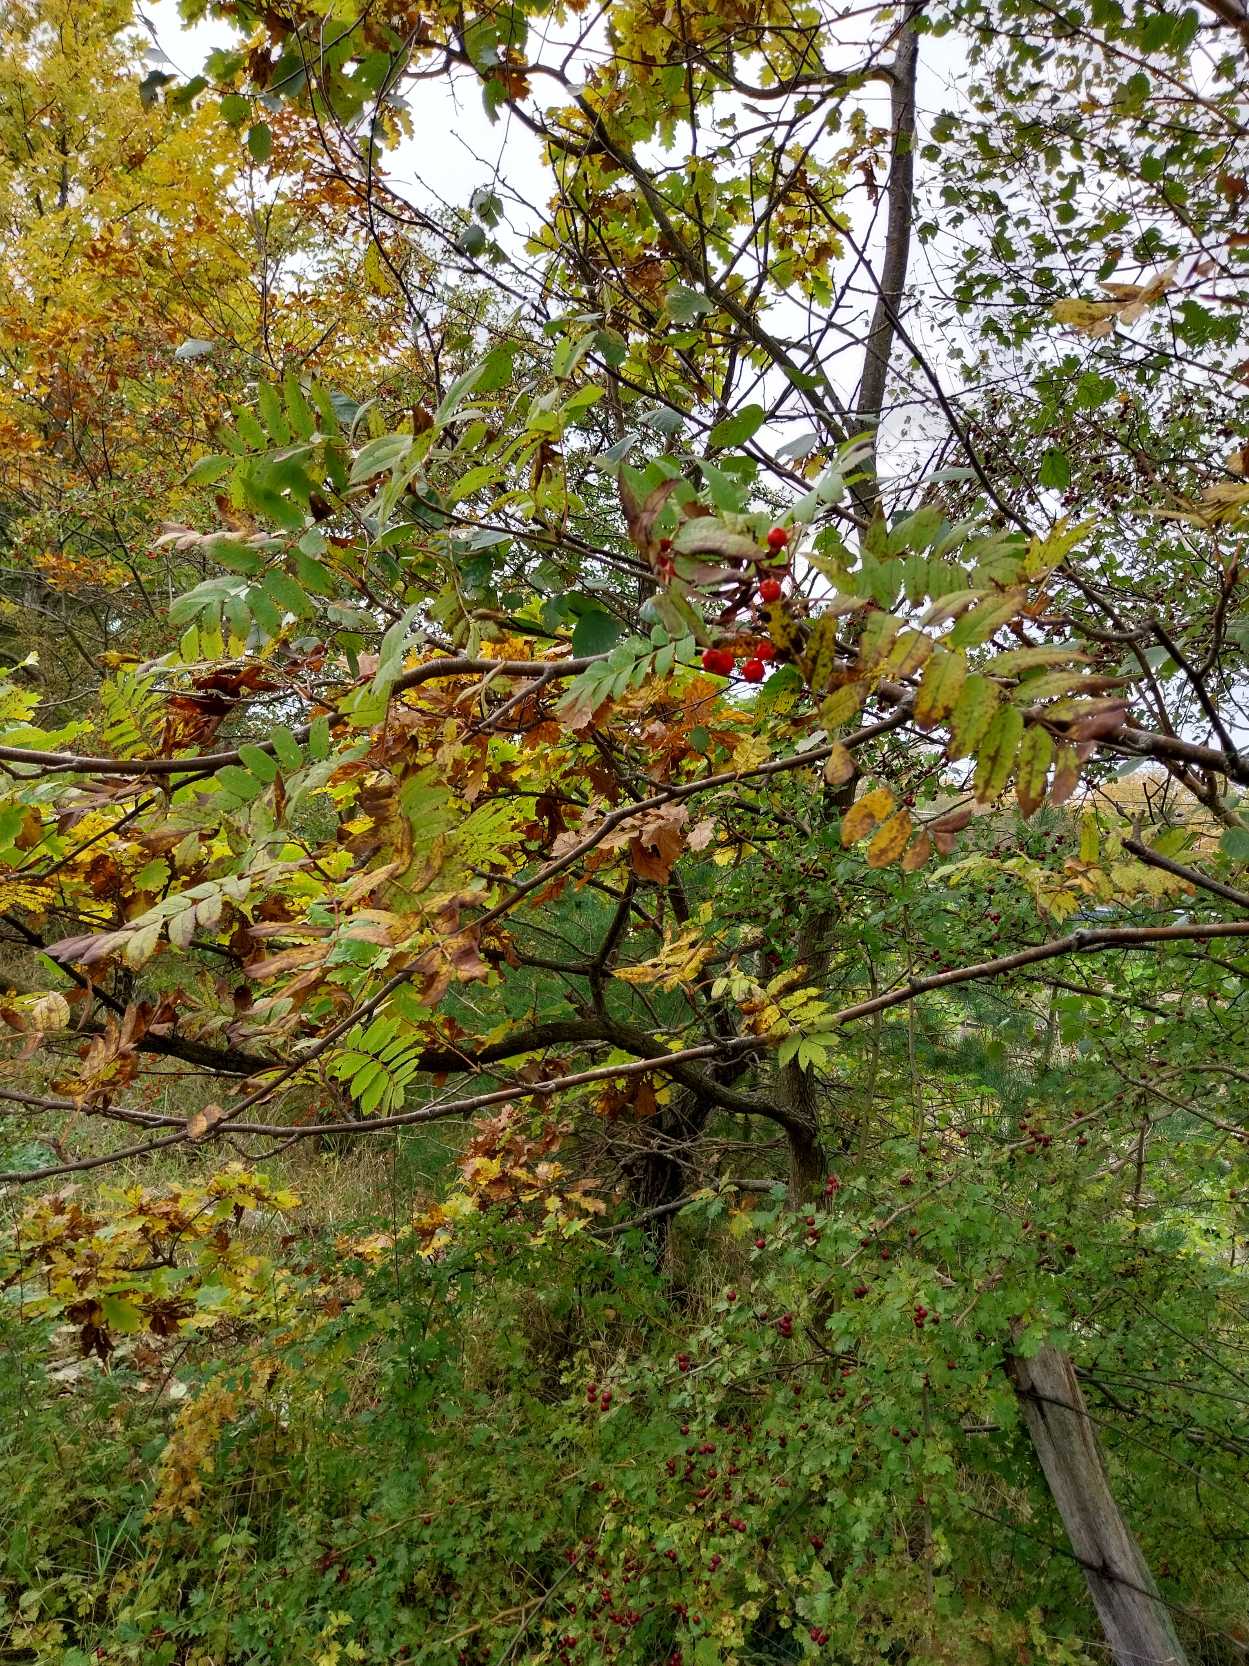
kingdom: Plantae
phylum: Tracheophyta
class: Magnoliopsida
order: Rosales
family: Rosaceae
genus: Sorbus
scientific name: Sorbus aucuparia
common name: Almindelig røn
